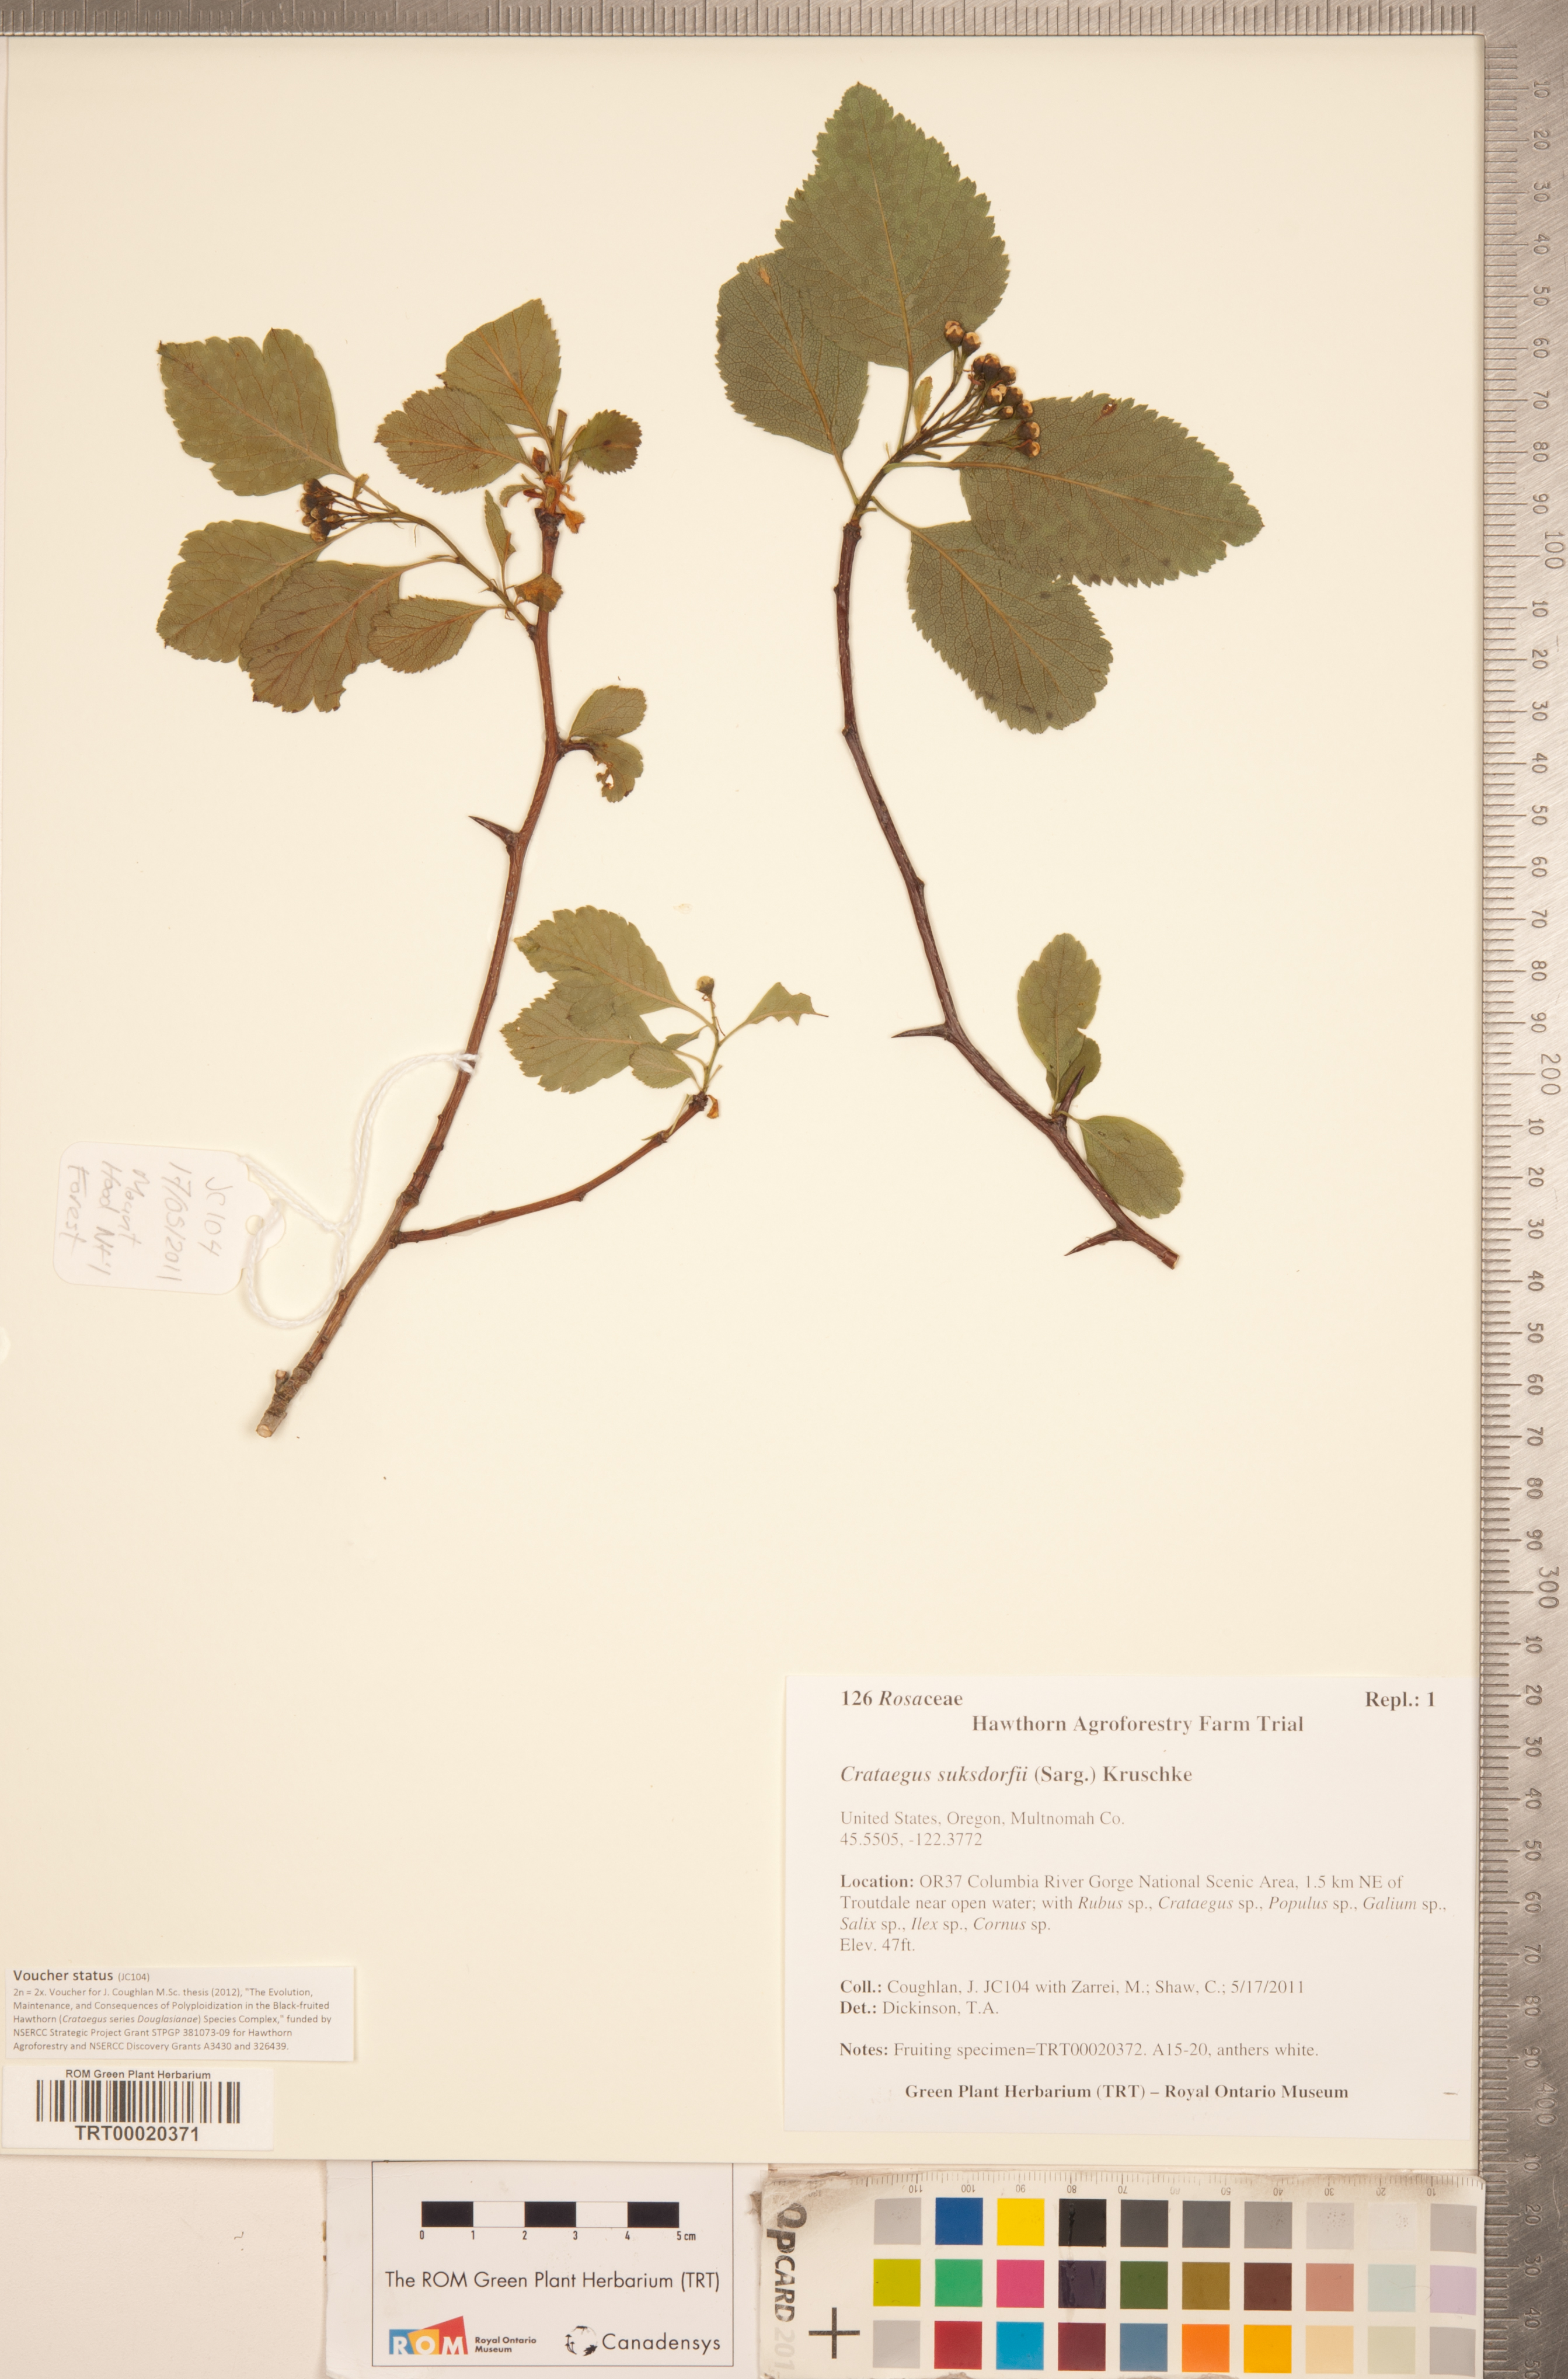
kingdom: Plantae
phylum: Tracheophyta
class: Magnoliopsida
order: Rosales
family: Rosaceae
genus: Crataegus
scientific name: Crataegus gaylussacia
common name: Huckleberry hawthorn
